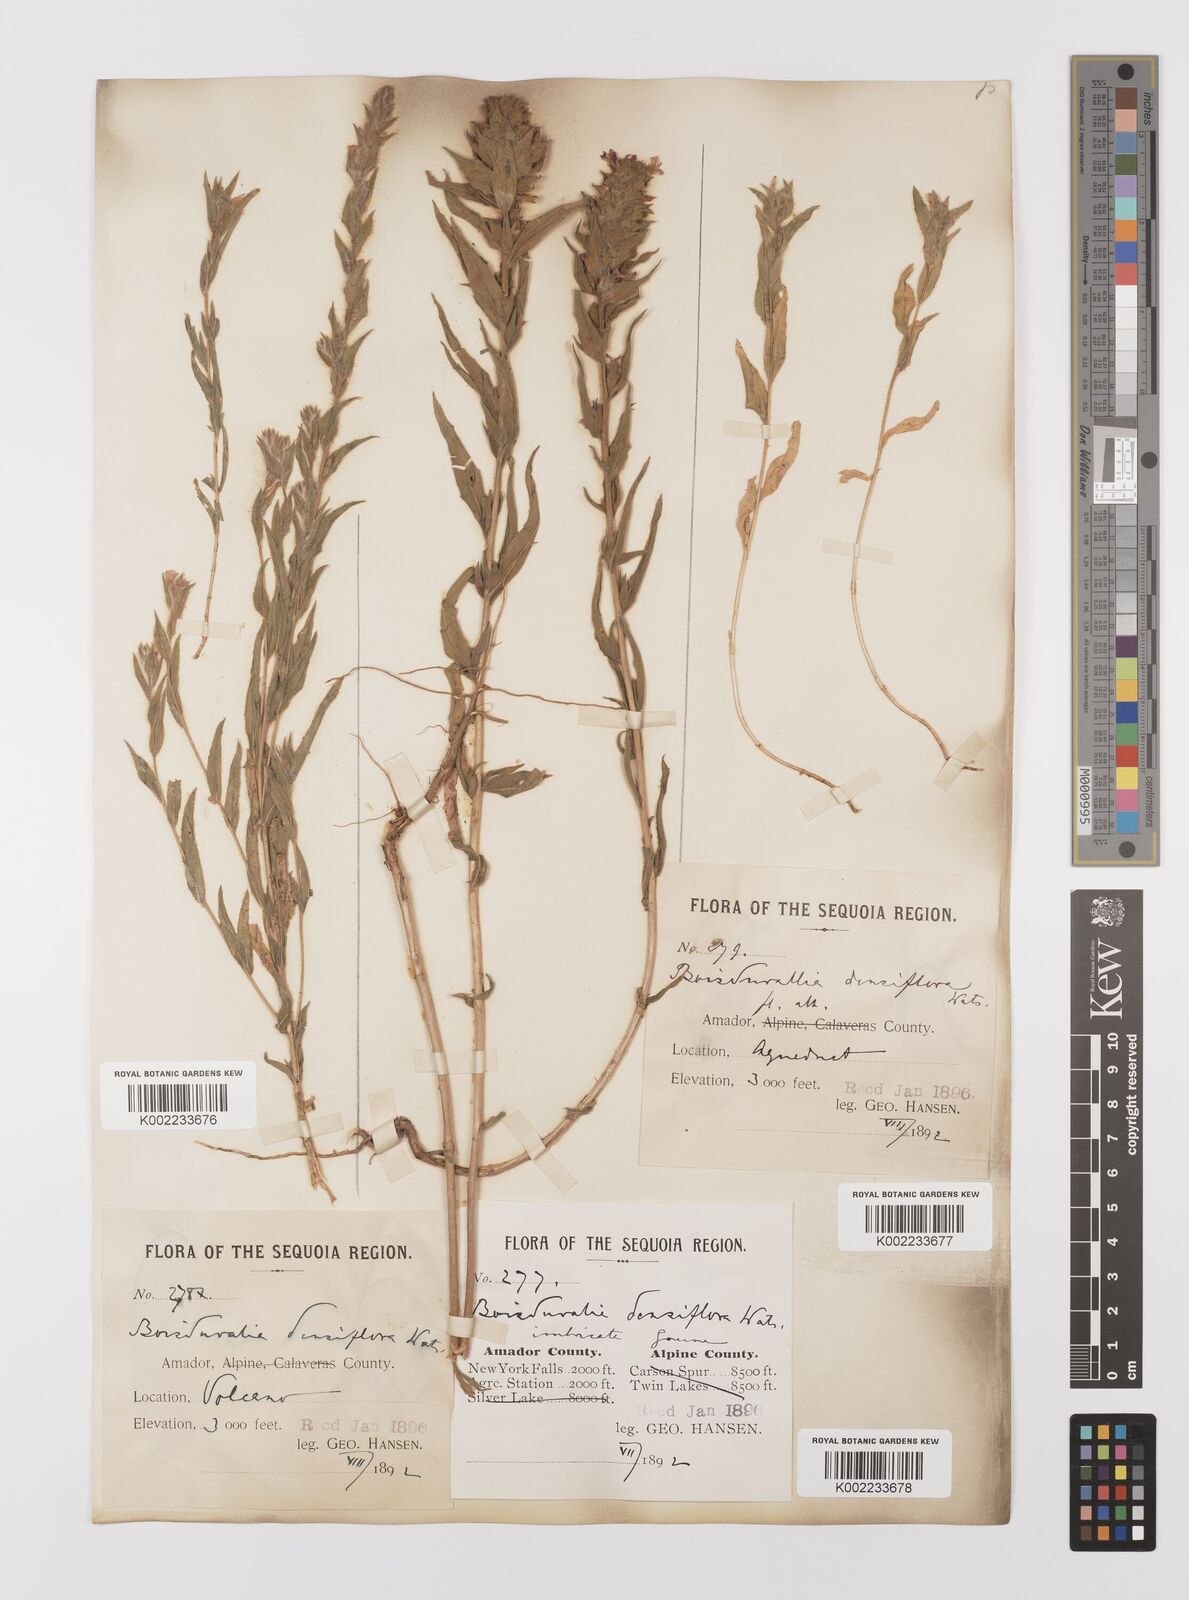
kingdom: Plantae
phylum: Tracheophyta
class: Magnoliopsida
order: Myrtales
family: Onagraceae
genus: Epilobium
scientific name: Epilobium densiflorum
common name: Dense spike-primrose
